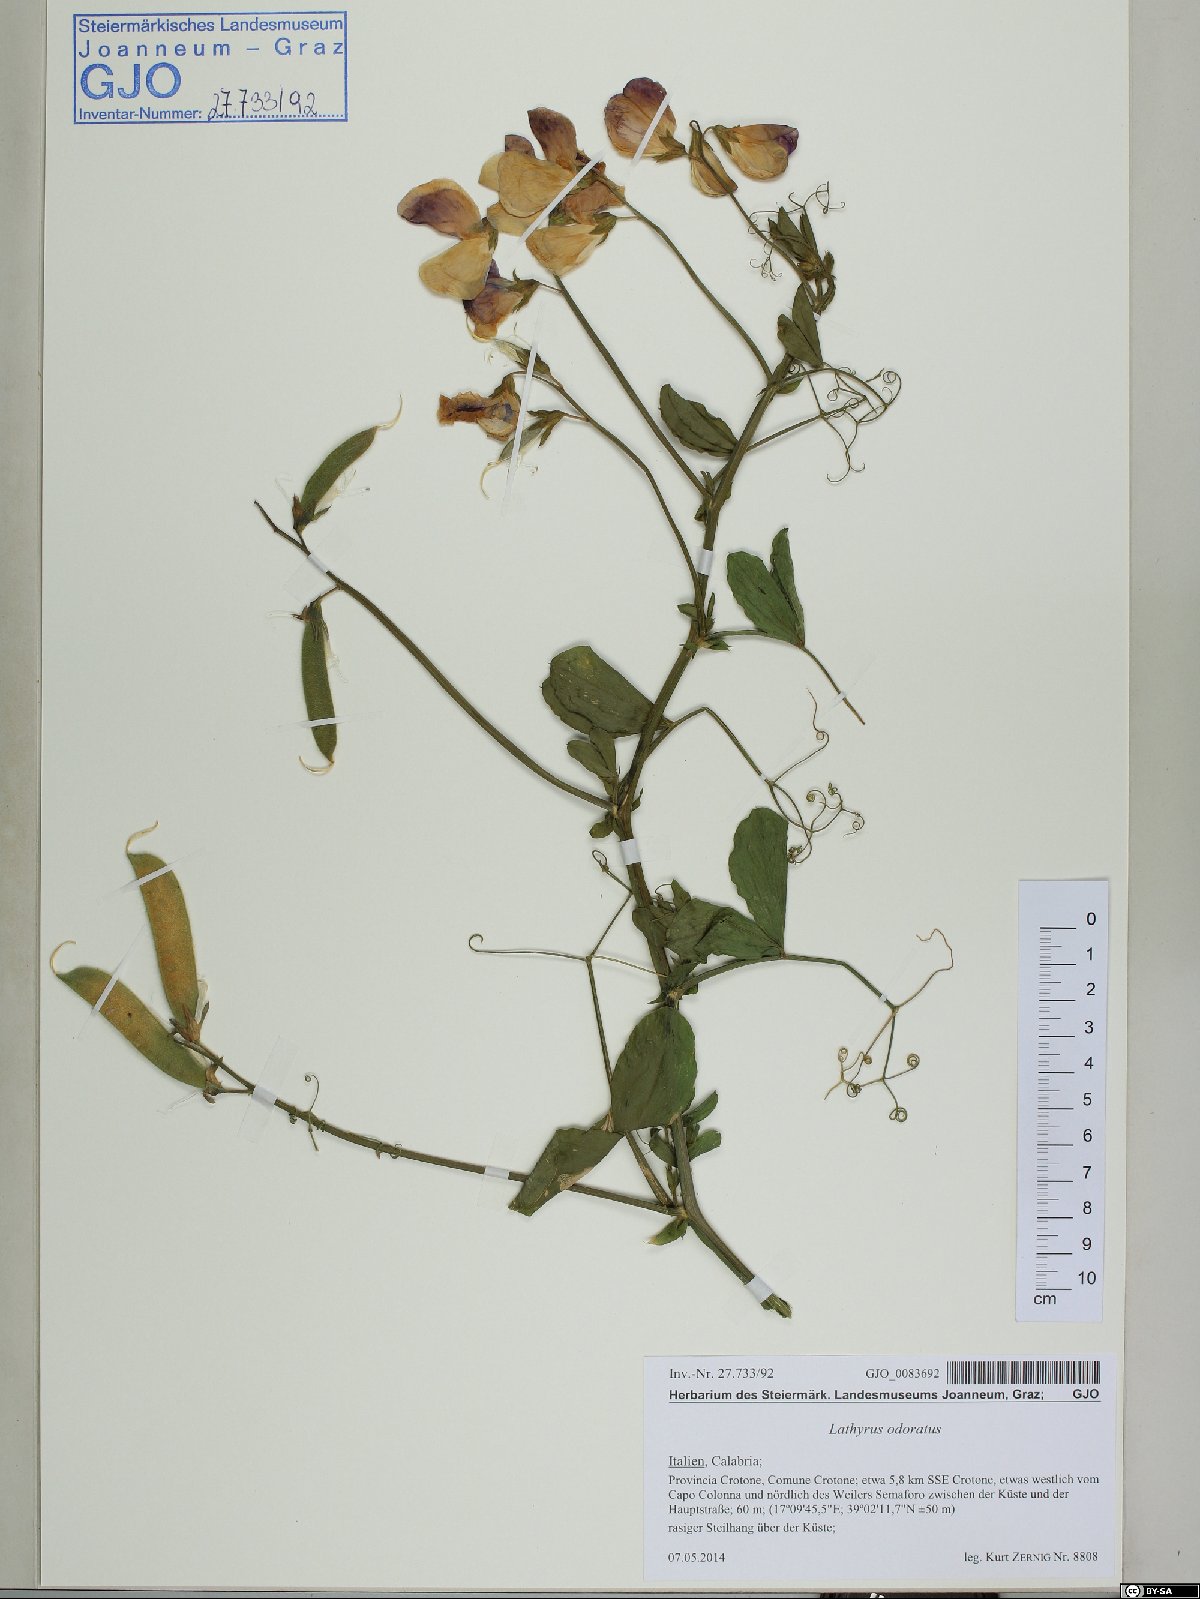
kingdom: Plantae
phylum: Tracheophyta
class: Magnoliopsida
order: Fabales
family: Fabaceae
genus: Lathyrus
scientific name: Lathyrus odoratus
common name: Sweet pea
